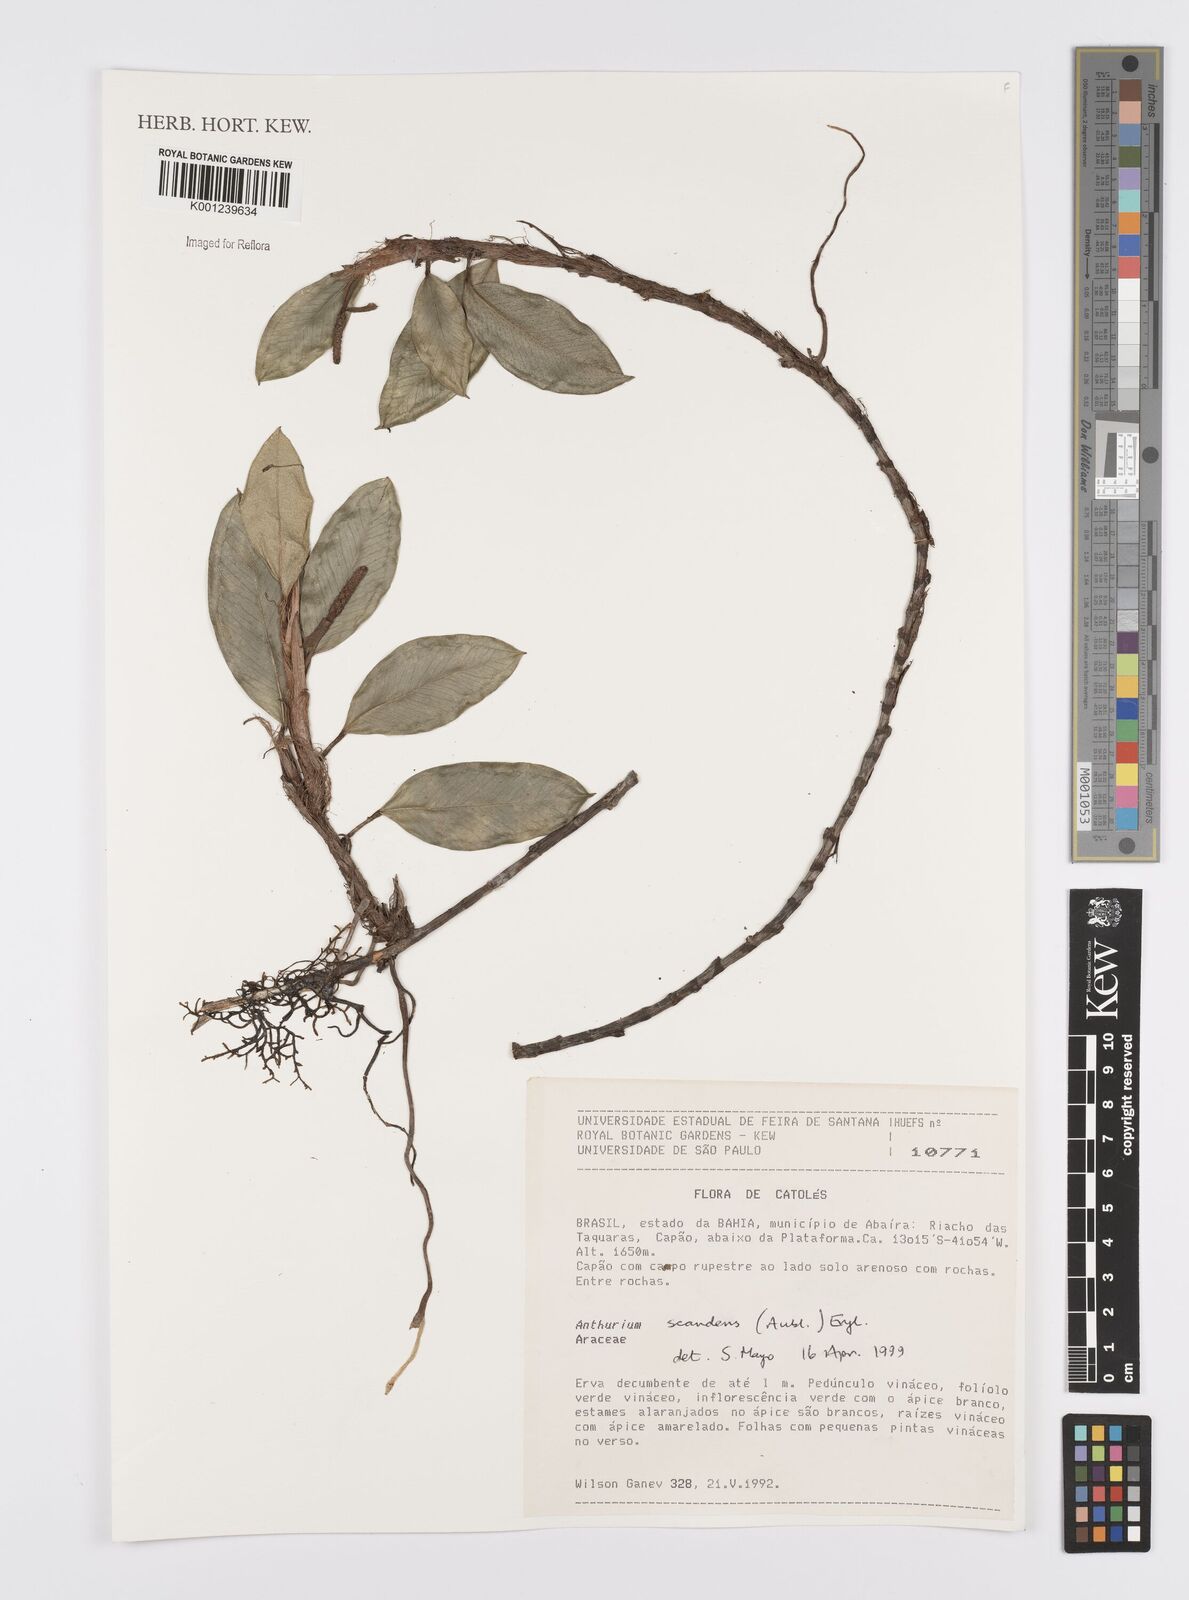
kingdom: Plantae
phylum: Tracheophyta
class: Liliopsida
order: Alismatales
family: Araceae
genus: Anthurium
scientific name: Anthurium scandens
